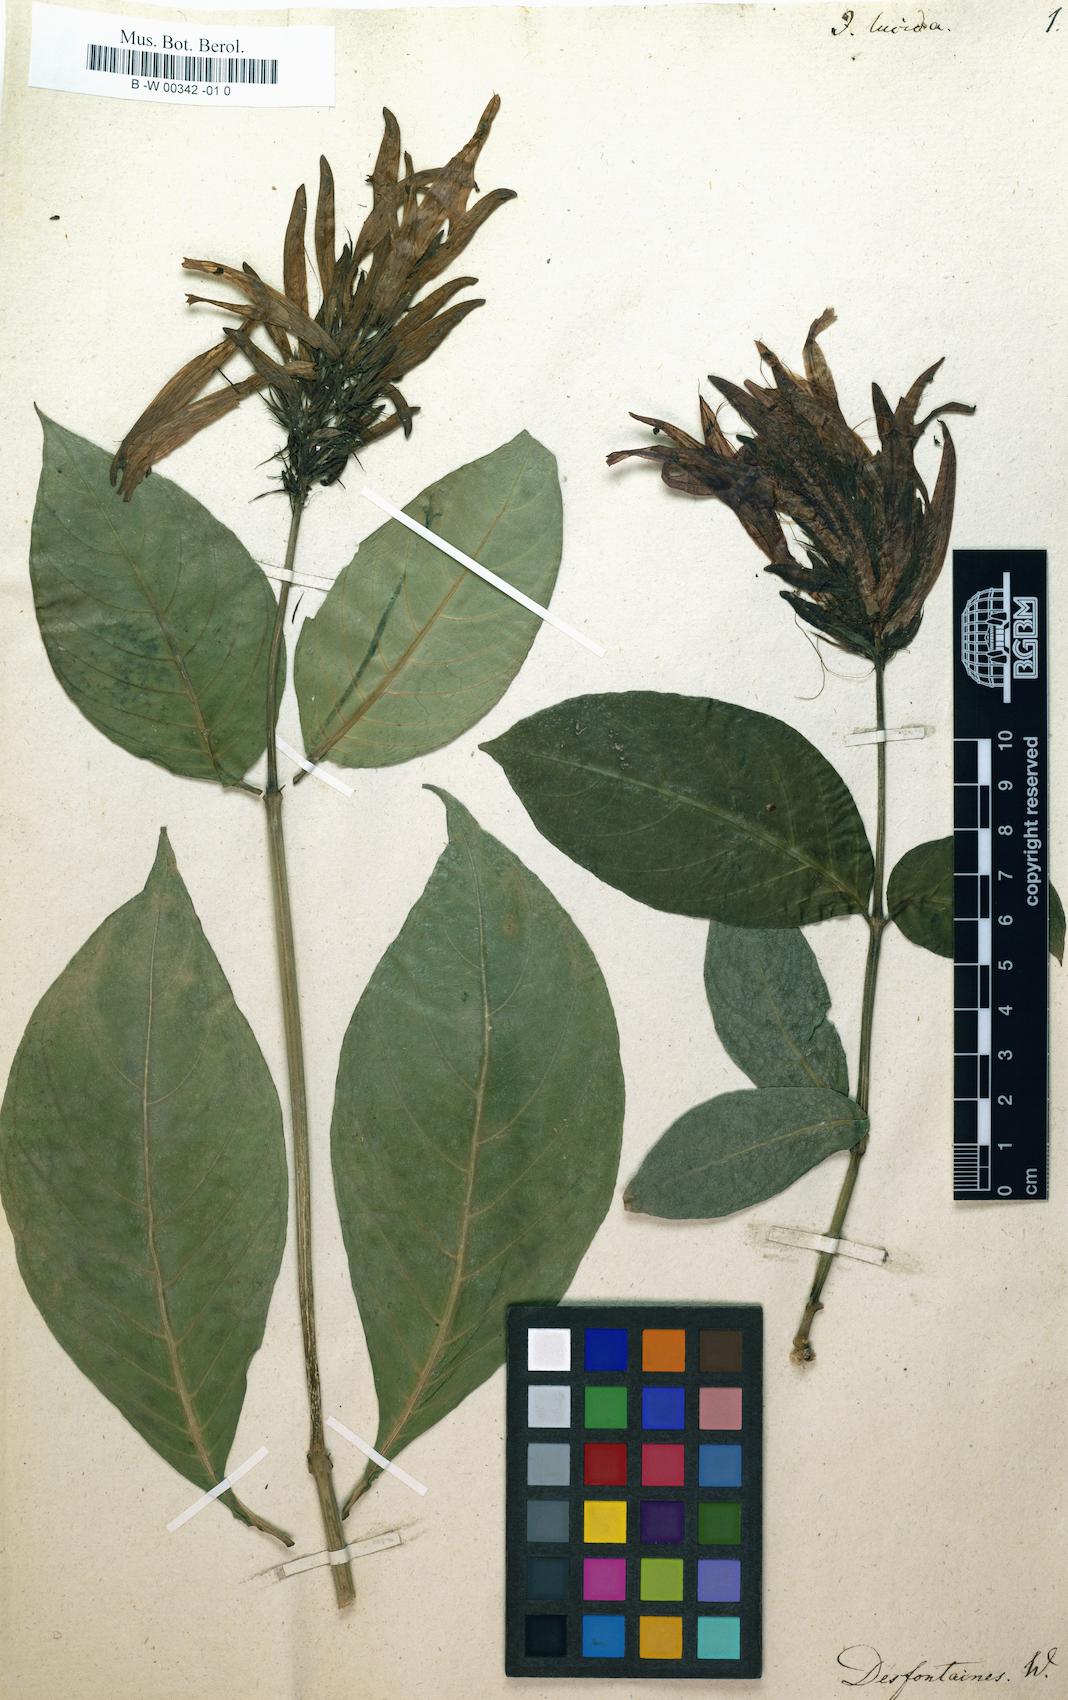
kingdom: Plantae
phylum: Tracheophyta
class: Magnoliopsida
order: Lamiales
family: Acanthaceae
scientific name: Acanthaceae
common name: Acanthaceae
